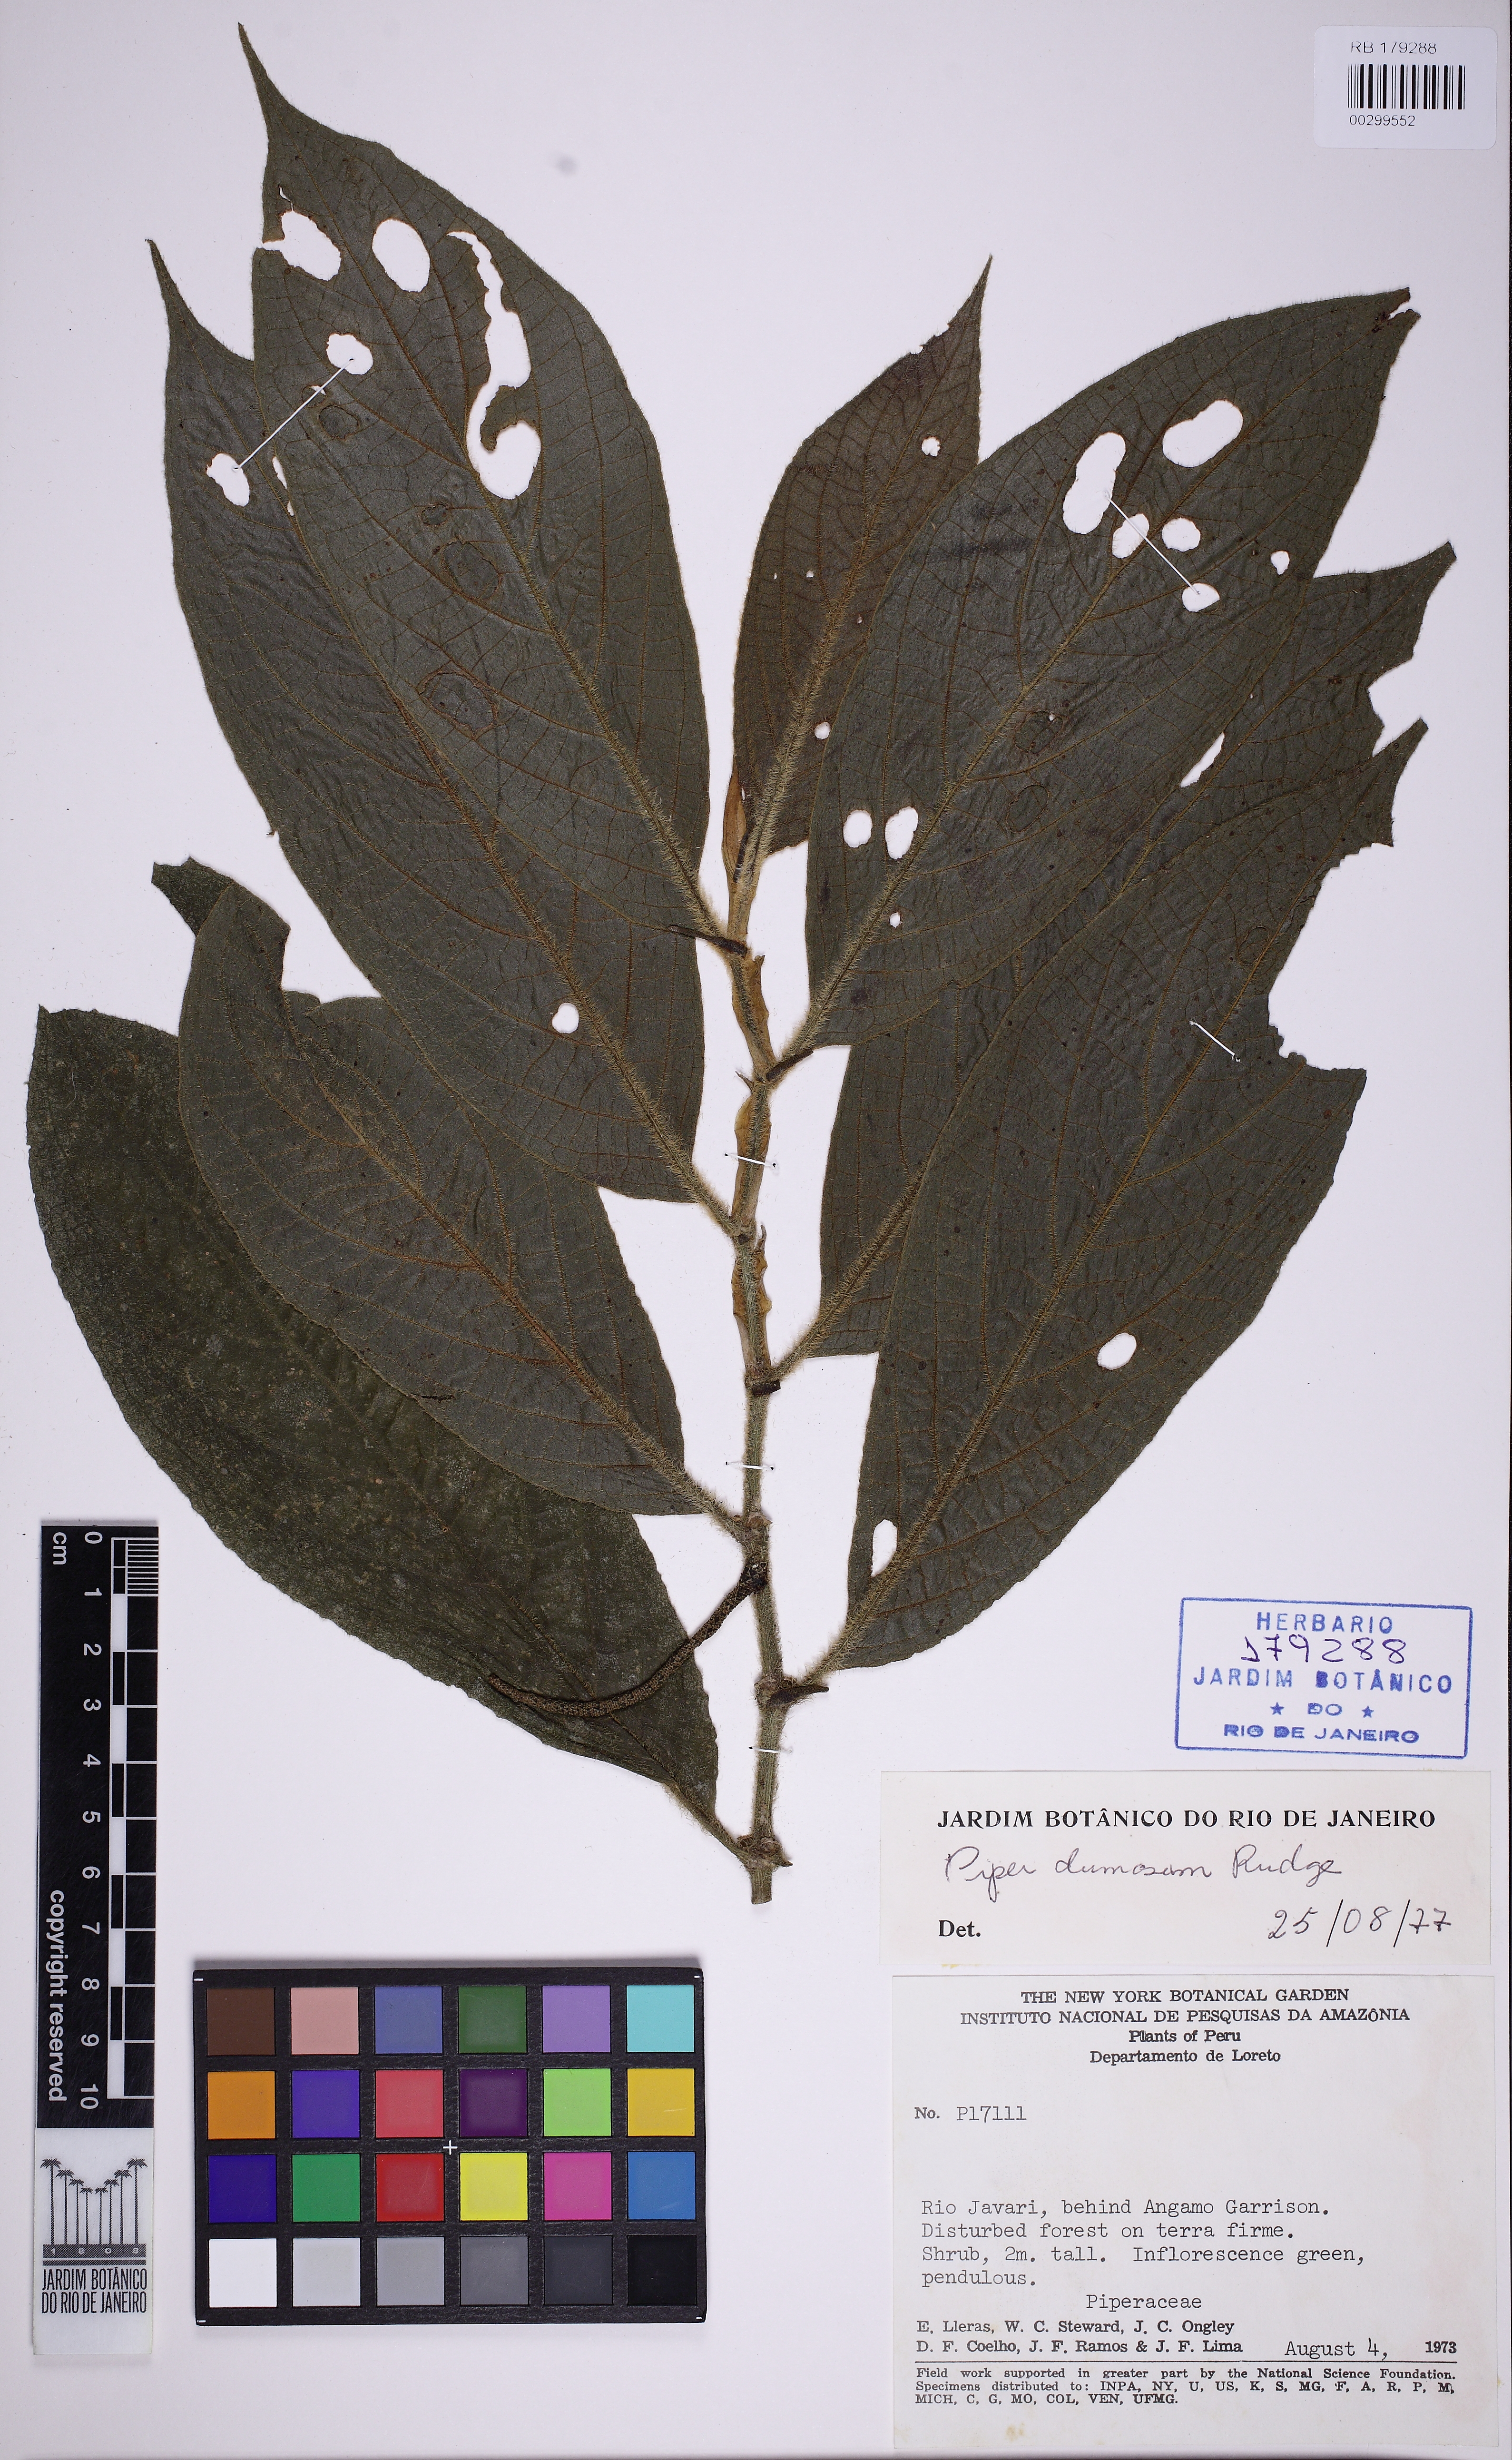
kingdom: Plantae
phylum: Tracheophyta
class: Magnoliopsida
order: Piperales
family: Piperaceae
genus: Piper
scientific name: Piper dumosum
